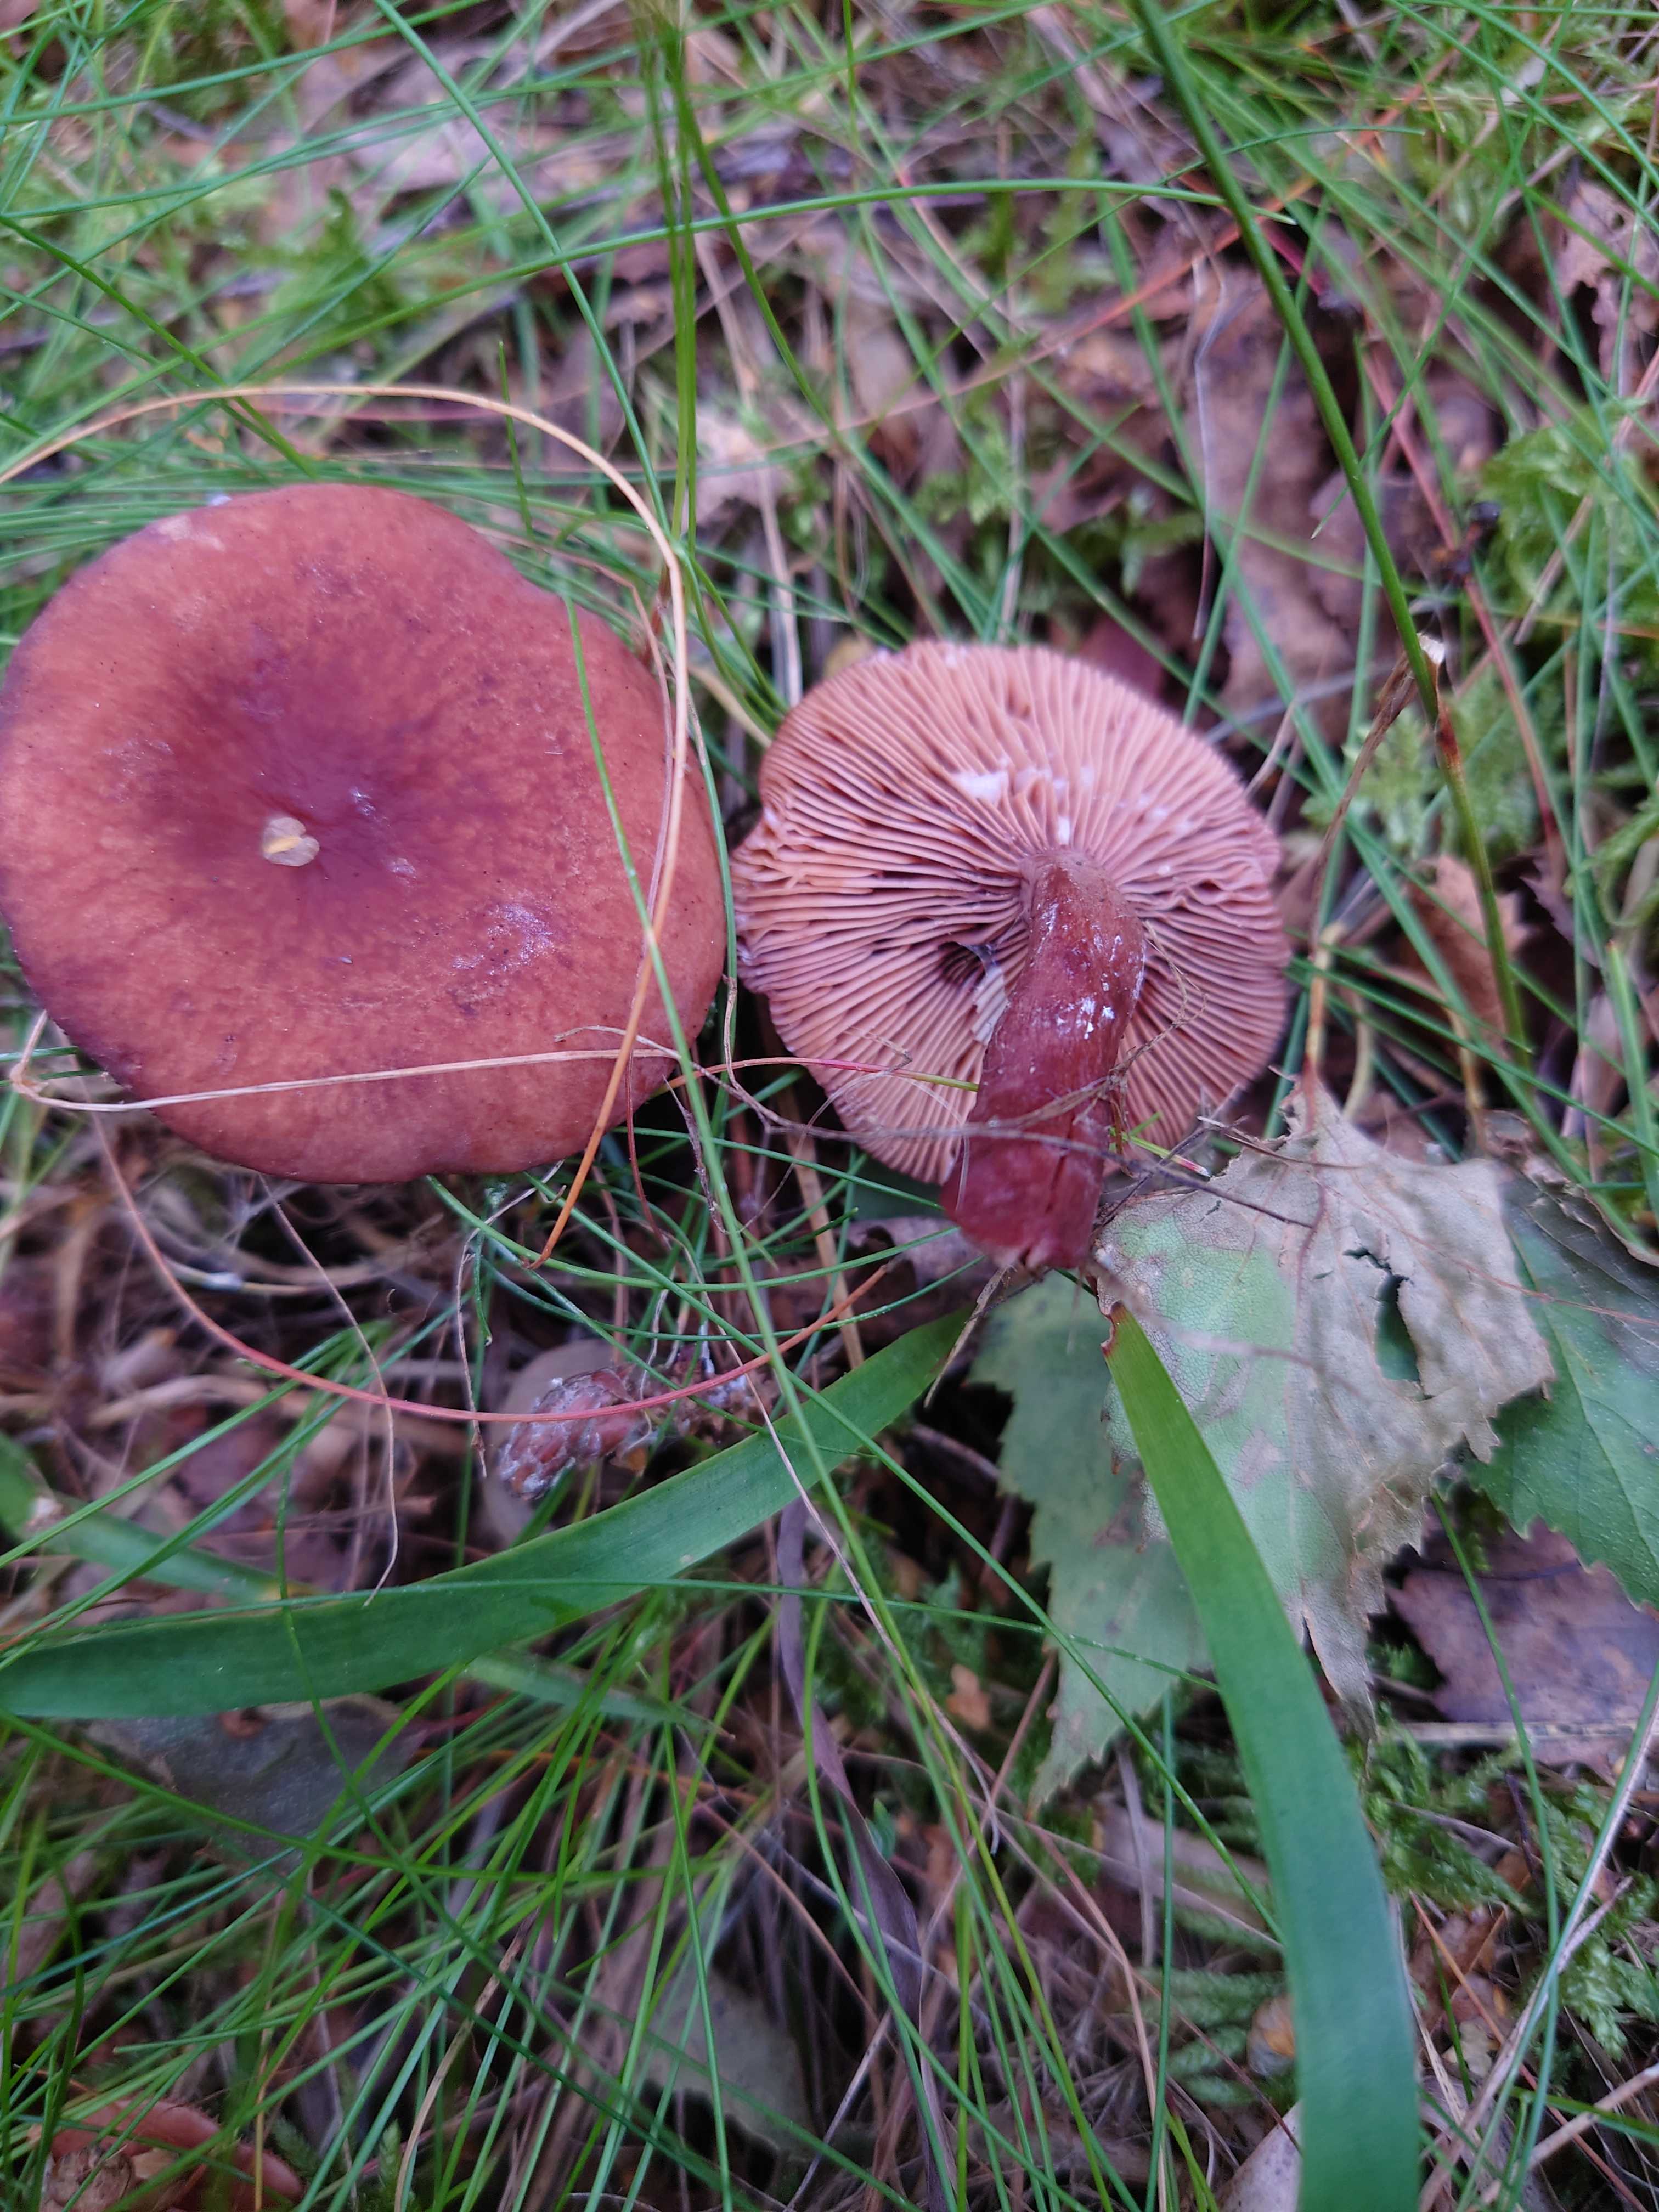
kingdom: Fungi
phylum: Basidiomycota
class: Agaricomycetes
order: Russulales
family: Russulaceae
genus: Lactarius
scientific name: Lactarius camphoratus
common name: kamfer-mælkehat
